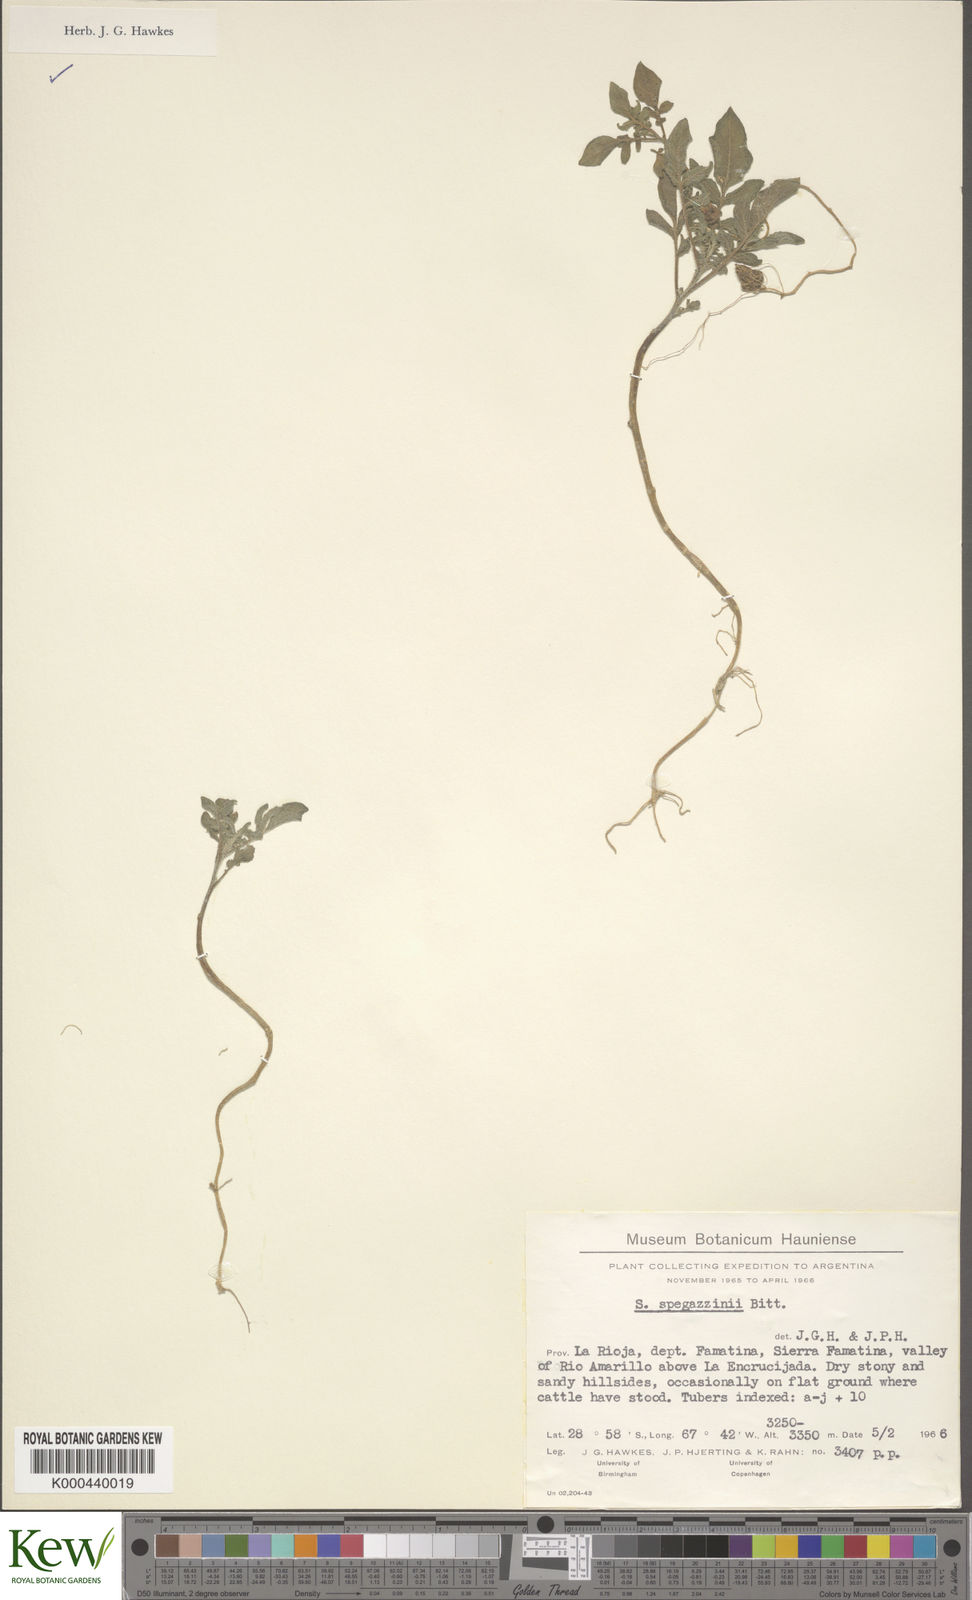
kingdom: Plantae
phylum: Tracheophyta
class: Magnoliopsida
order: Solanales
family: Solanaceae
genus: Solanum
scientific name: Solanum brevicaule
